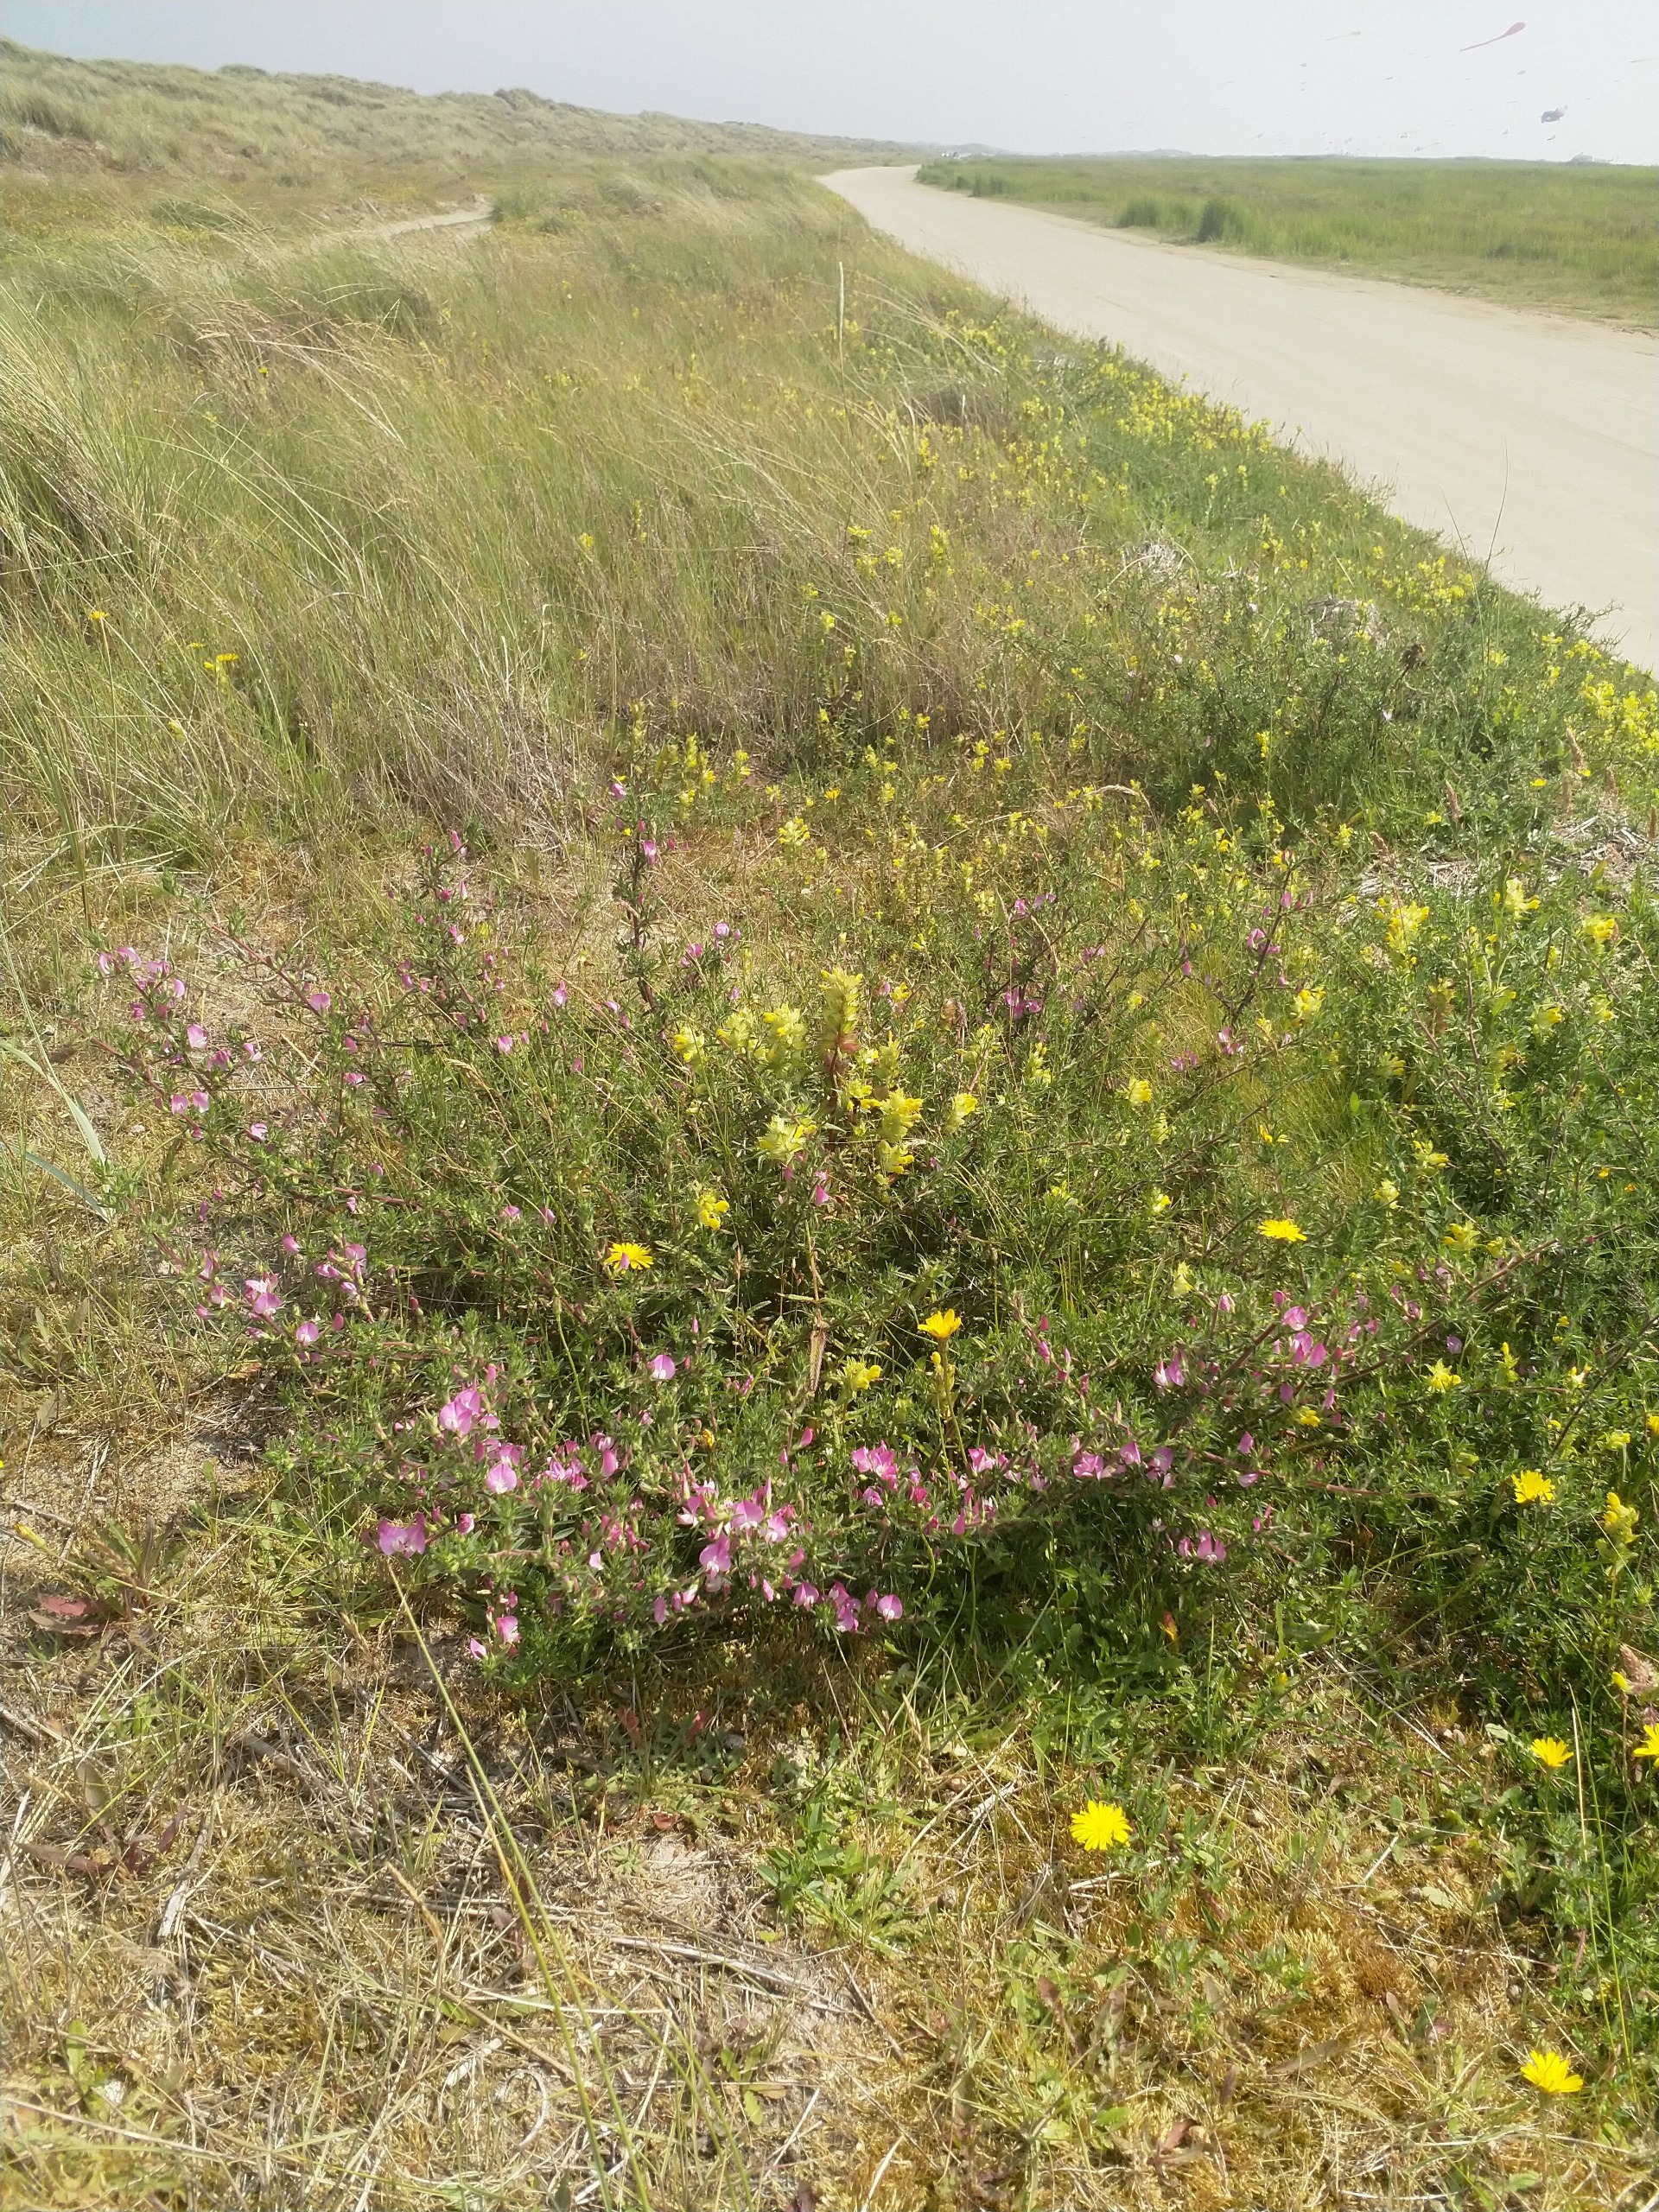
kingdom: Plantae
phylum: Tracheophyta
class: Magnoliopsida
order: Fabales
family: Fabaceae
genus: Ononis
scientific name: Ononis spinosa
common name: Strand-krageklo
